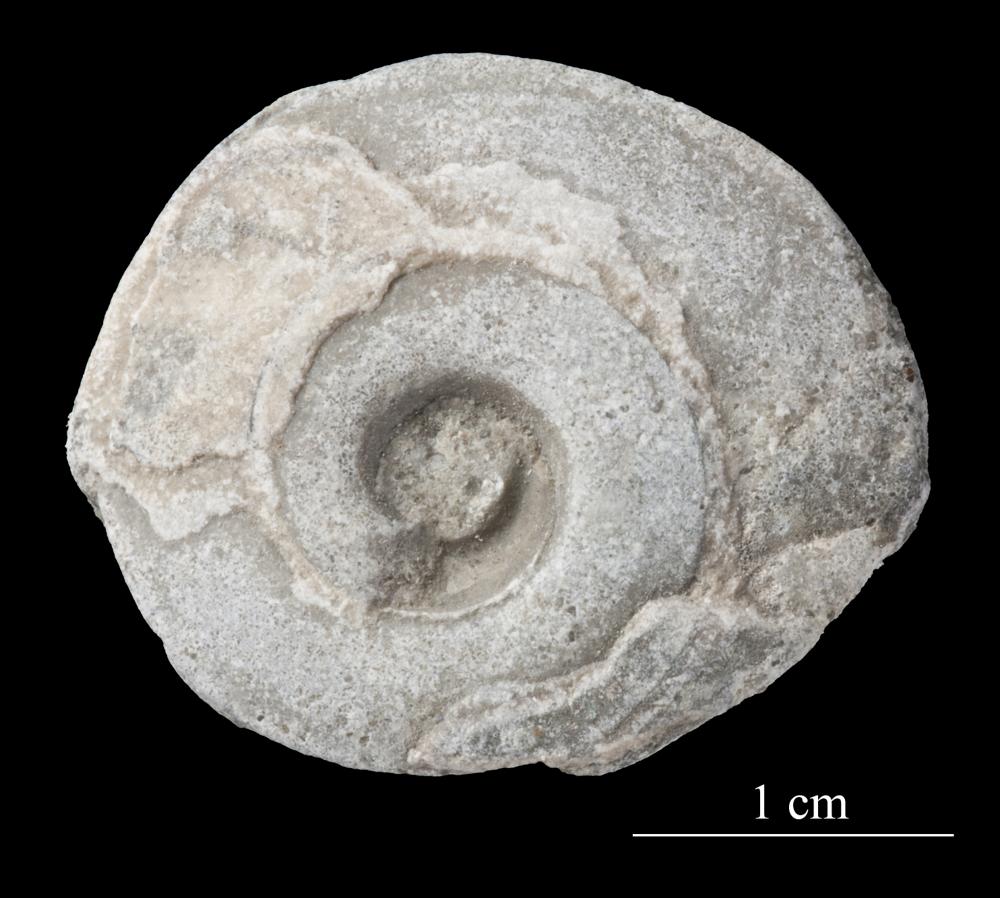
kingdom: Animalia
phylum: Mollusca
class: Gastropoda
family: Lesueurillidae
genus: Pararaphistoma
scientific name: Pararaphistoma Helicites qualteriata
